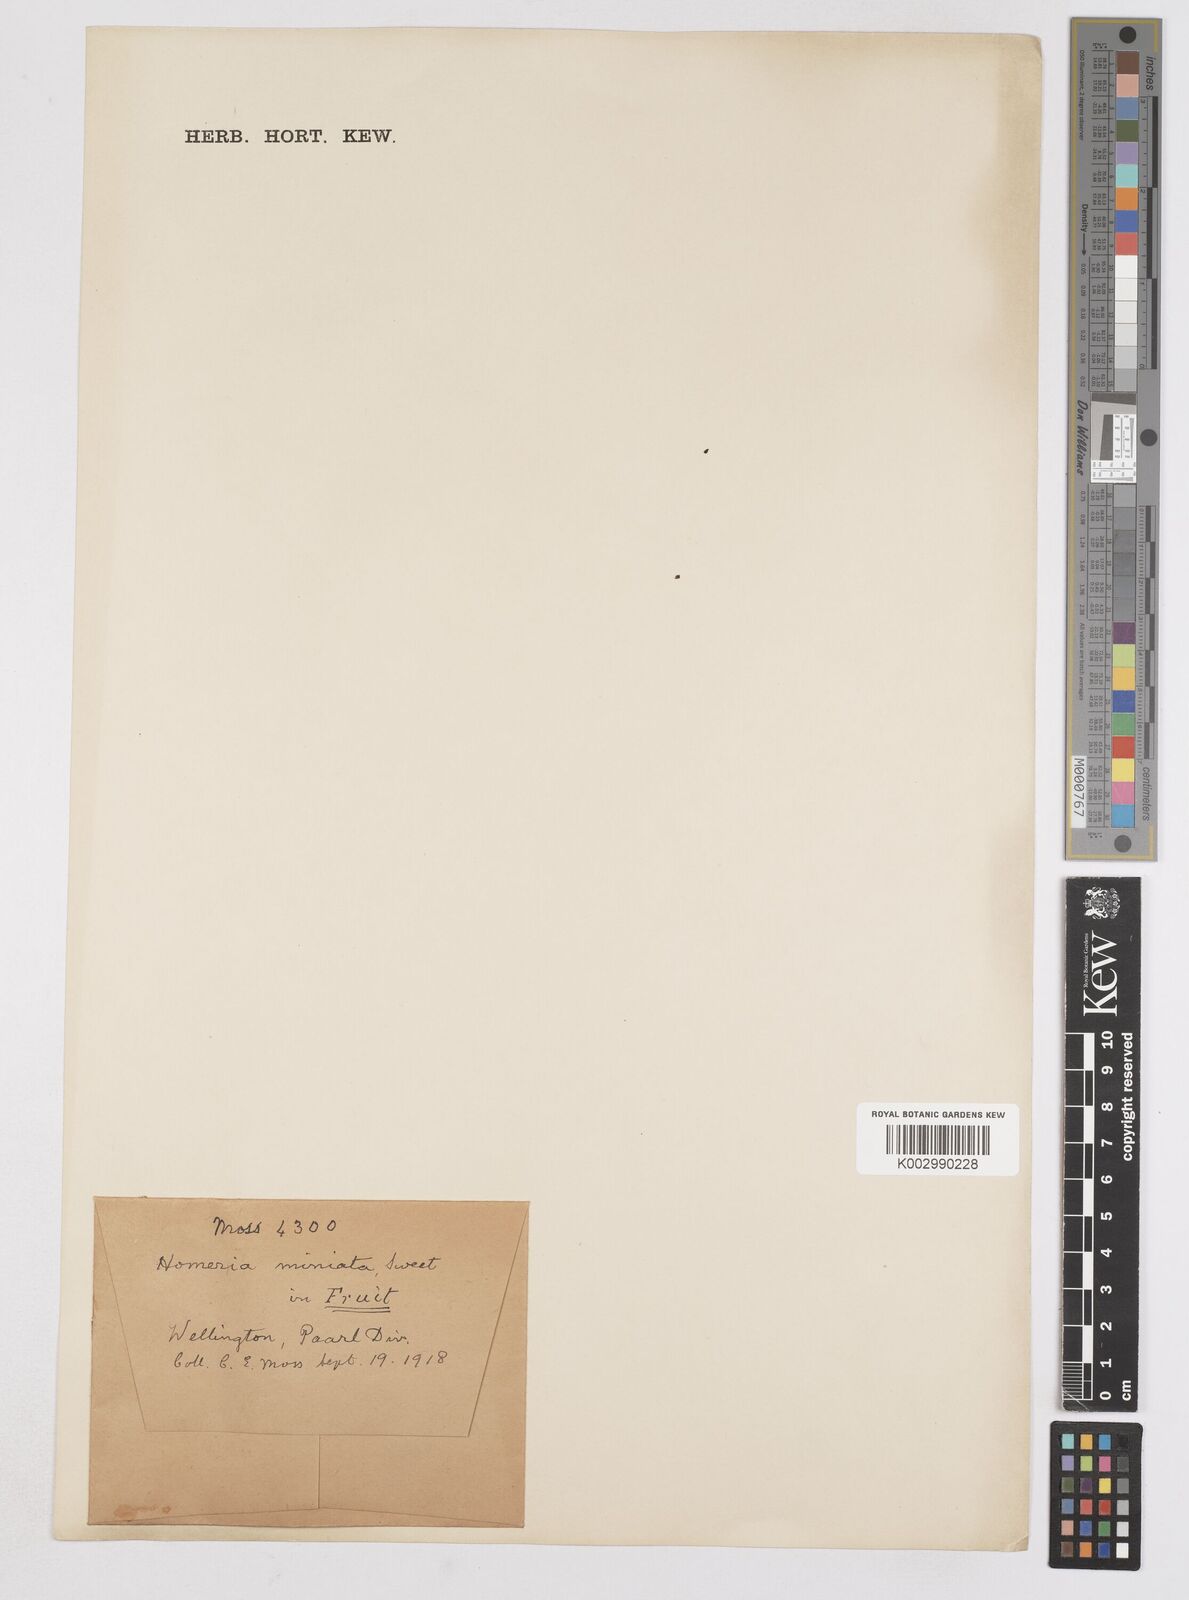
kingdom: Plantae
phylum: Tracheophyta
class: Liliopsida
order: Asparagales
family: Iridaceae
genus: Moraea
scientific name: Moraea miniata
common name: Two-leaf cape-tulip
